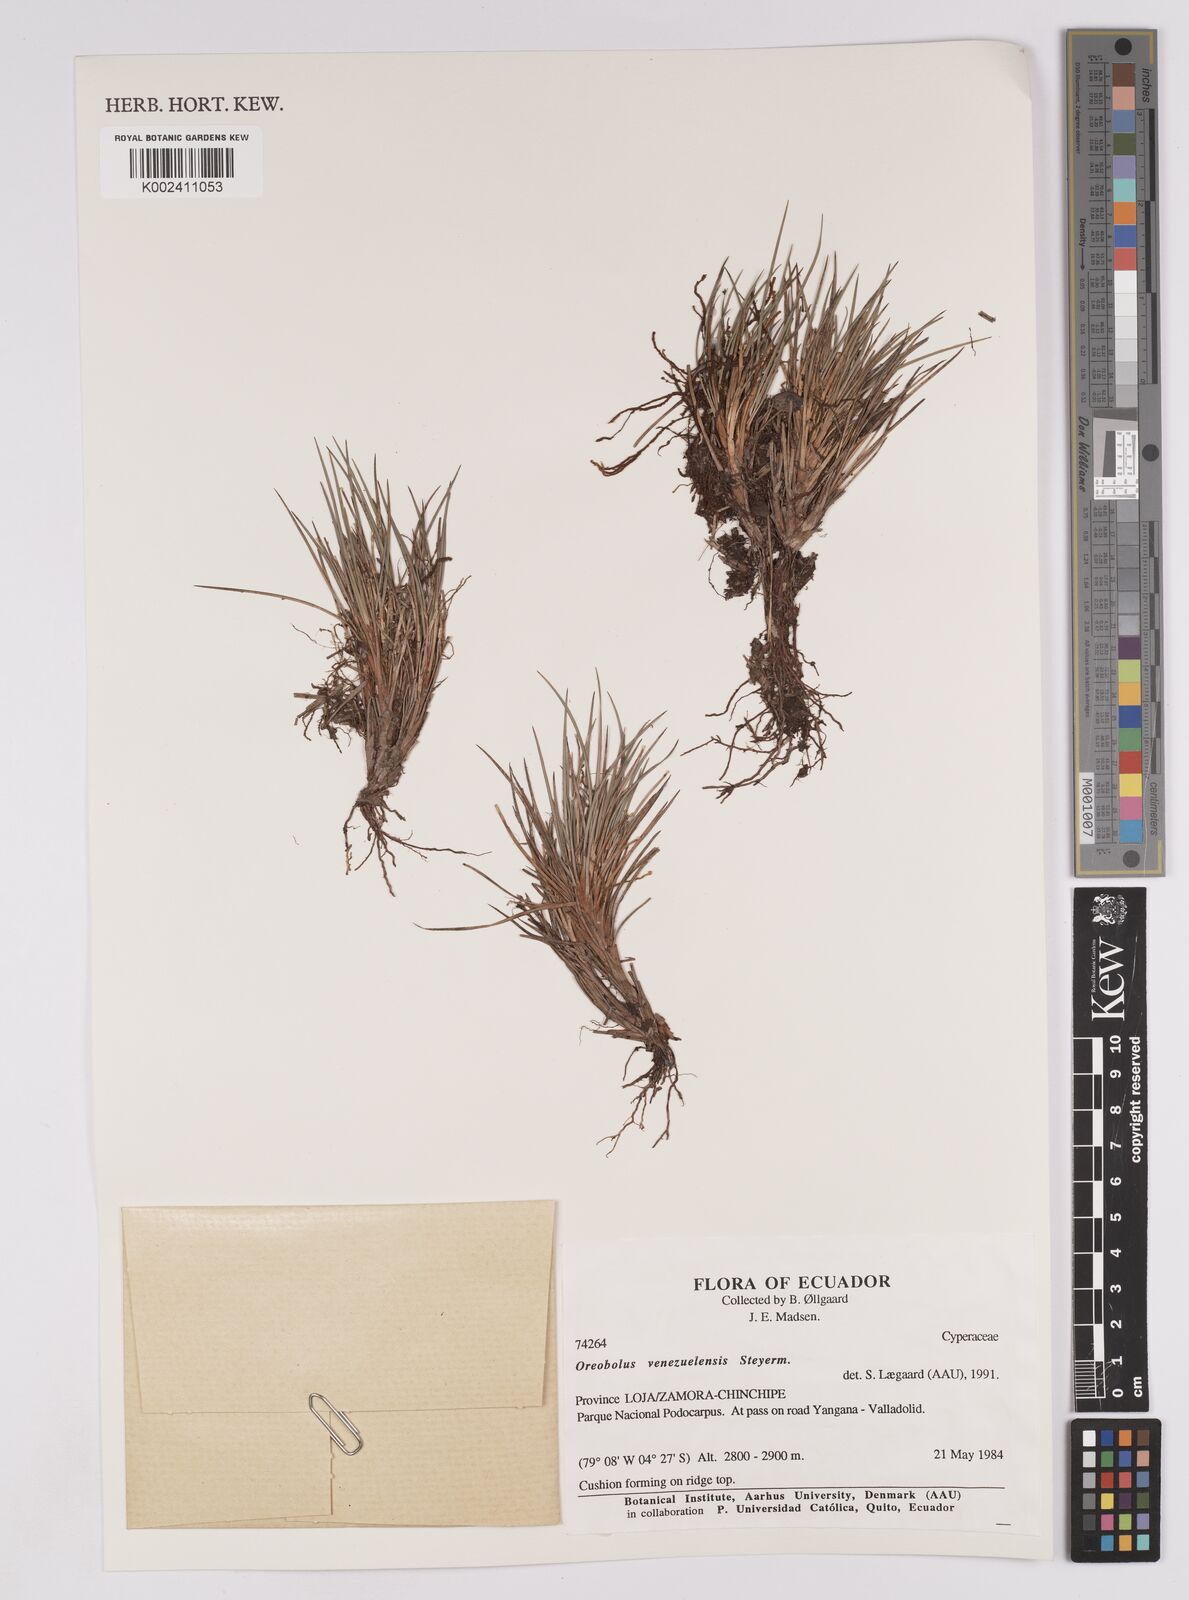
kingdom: Plantae
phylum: Tracheophyta
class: Liliopsida
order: Poales
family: Cyperaceae
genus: Oreobolus
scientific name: Oreobolus venezuelensis
